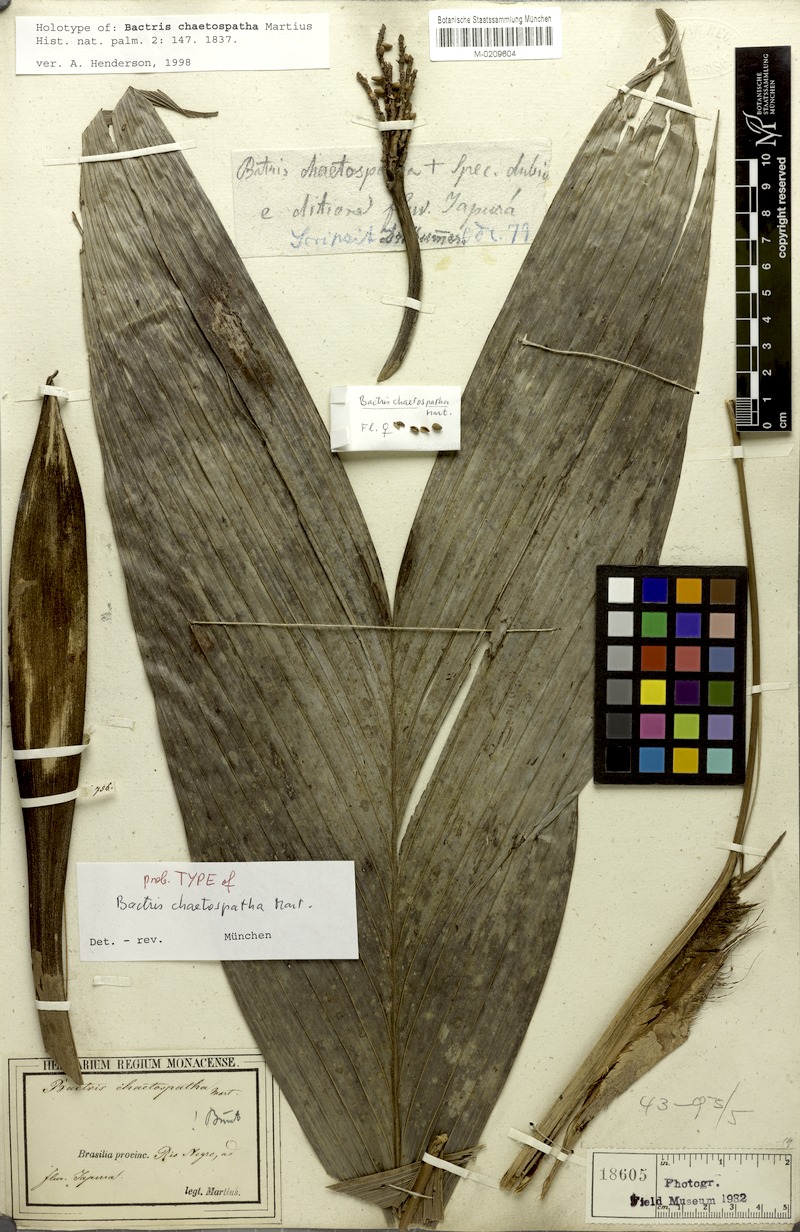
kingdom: Plantae
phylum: Tracheophyta
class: Liliopsida
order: Arecales
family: Arecaceae
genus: Bactris
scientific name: Bactris maraja
